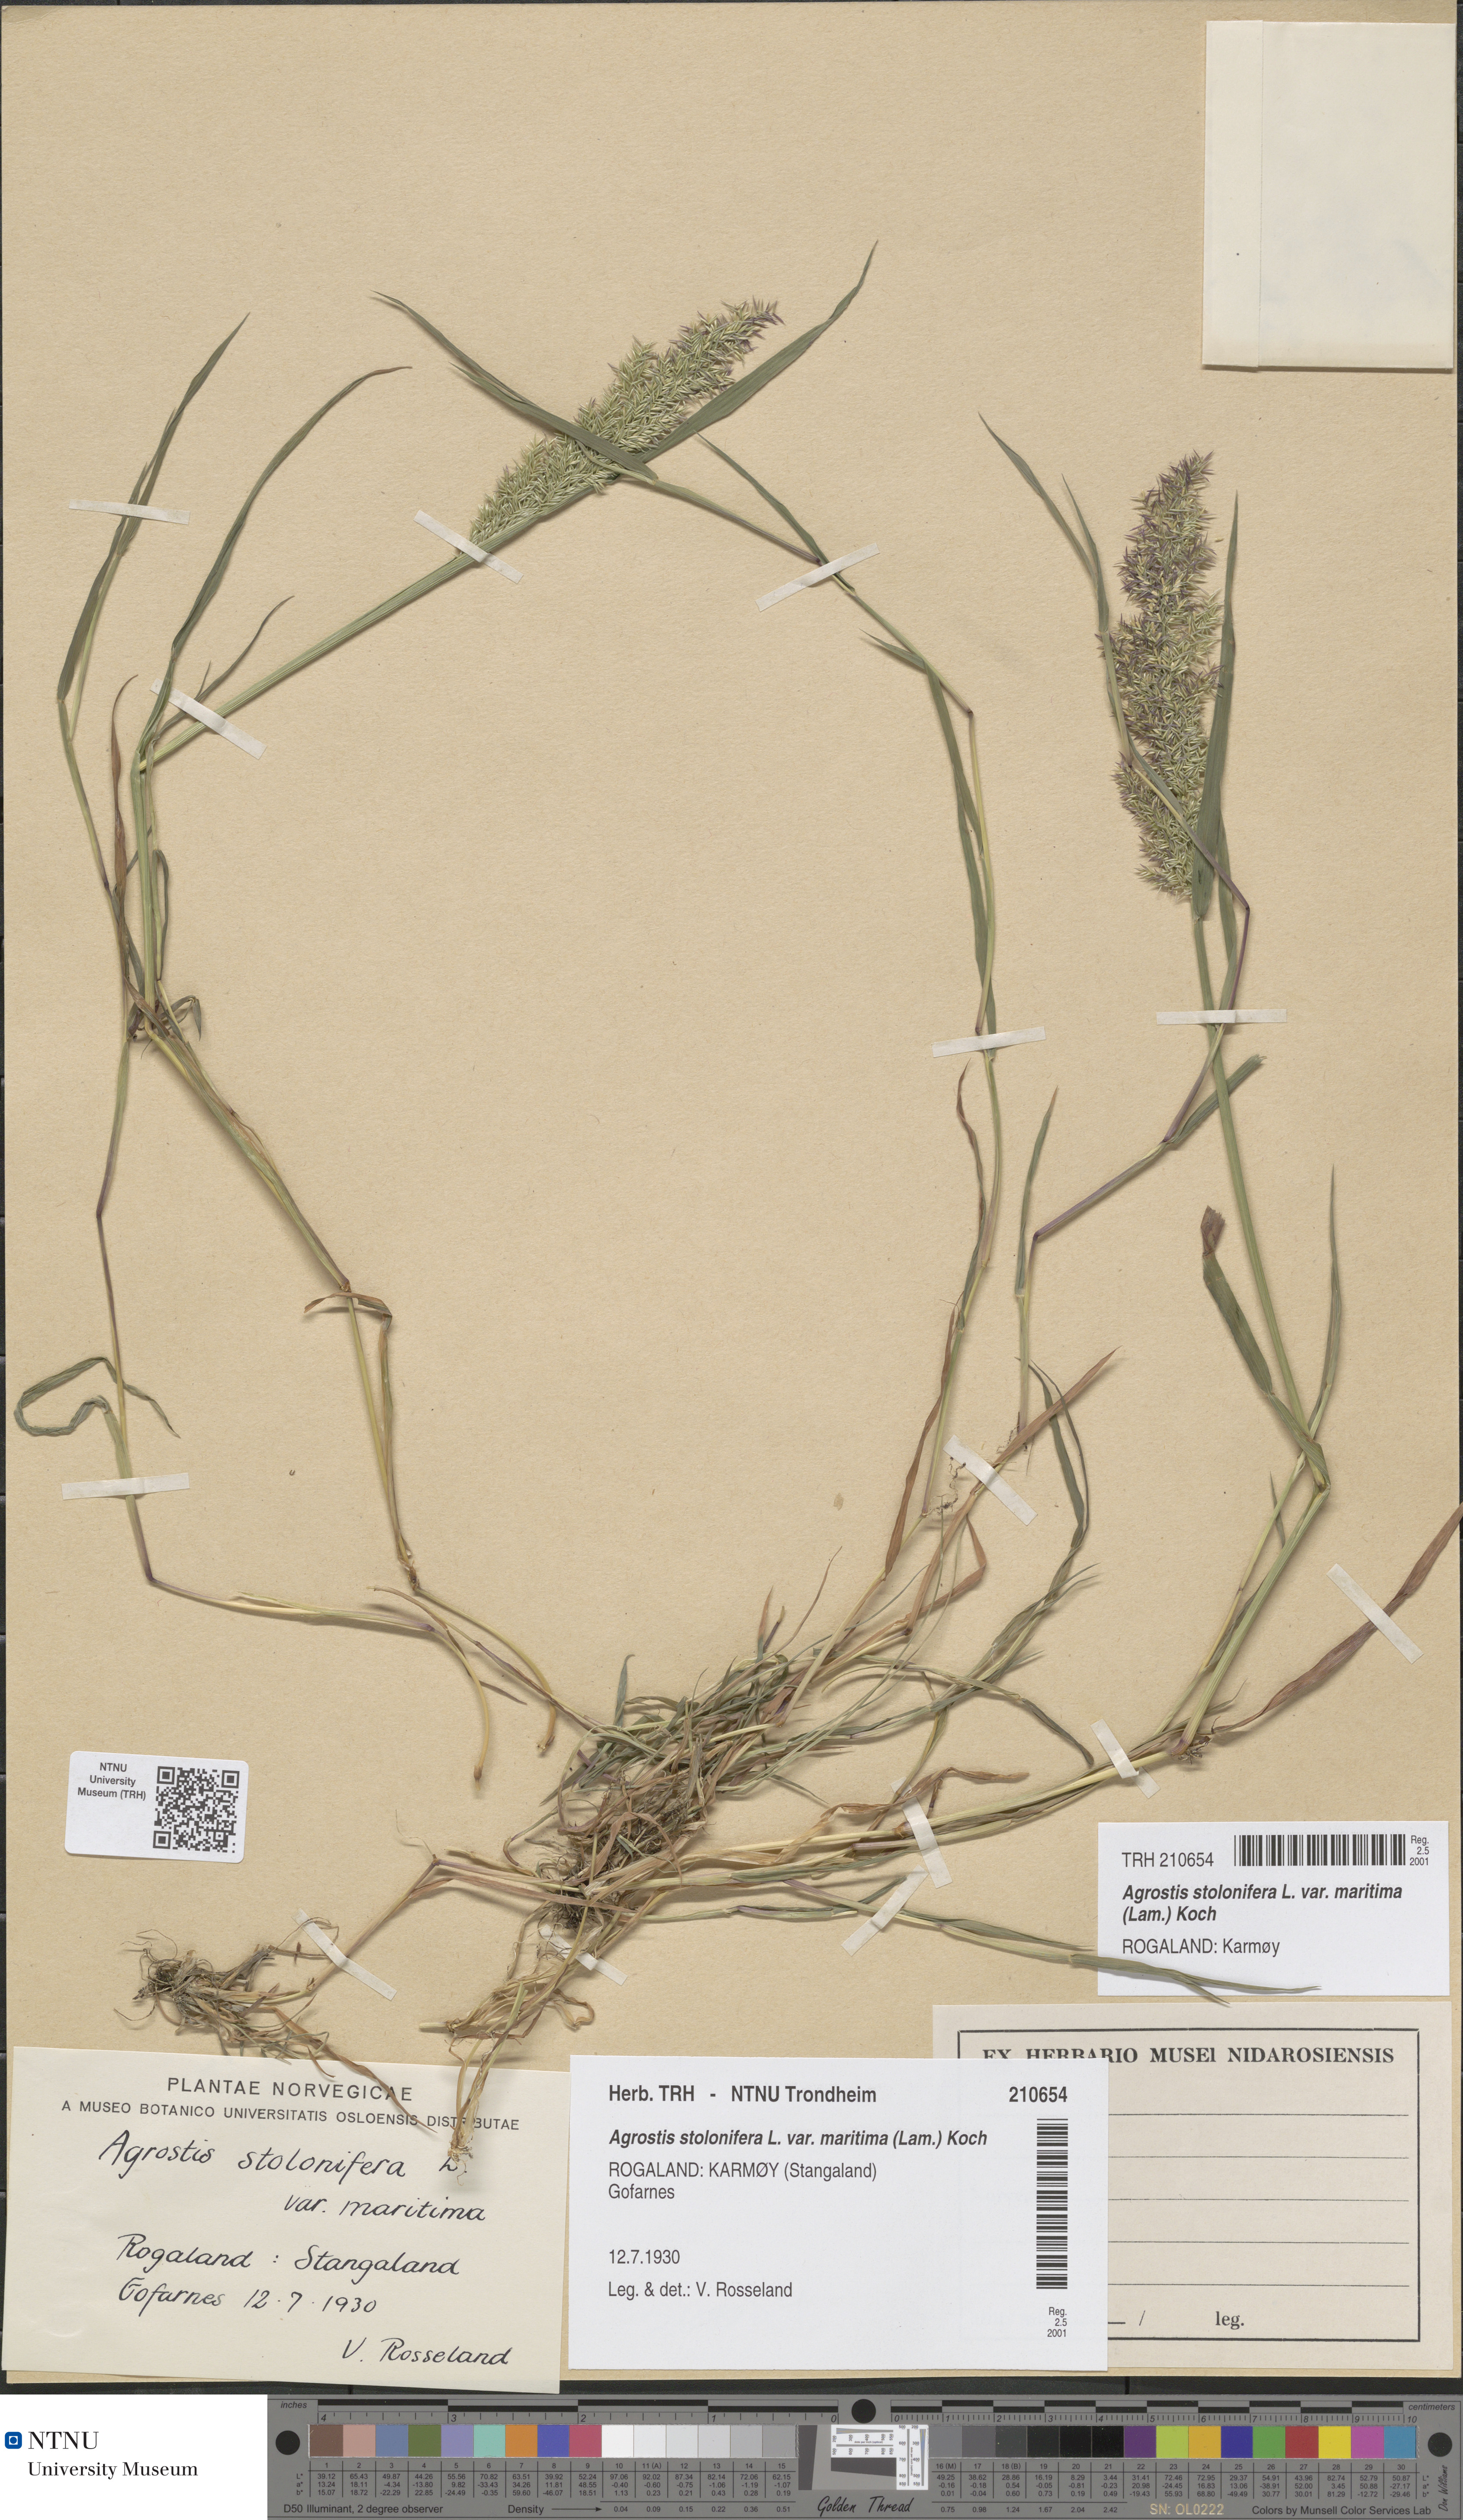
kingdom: Plantae
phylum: Tracheophyta
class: Liliopsida
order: Poales
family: Poaceae
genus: Agrostis
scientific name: Agrostis stolonifera
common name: Creeping bentgrass
